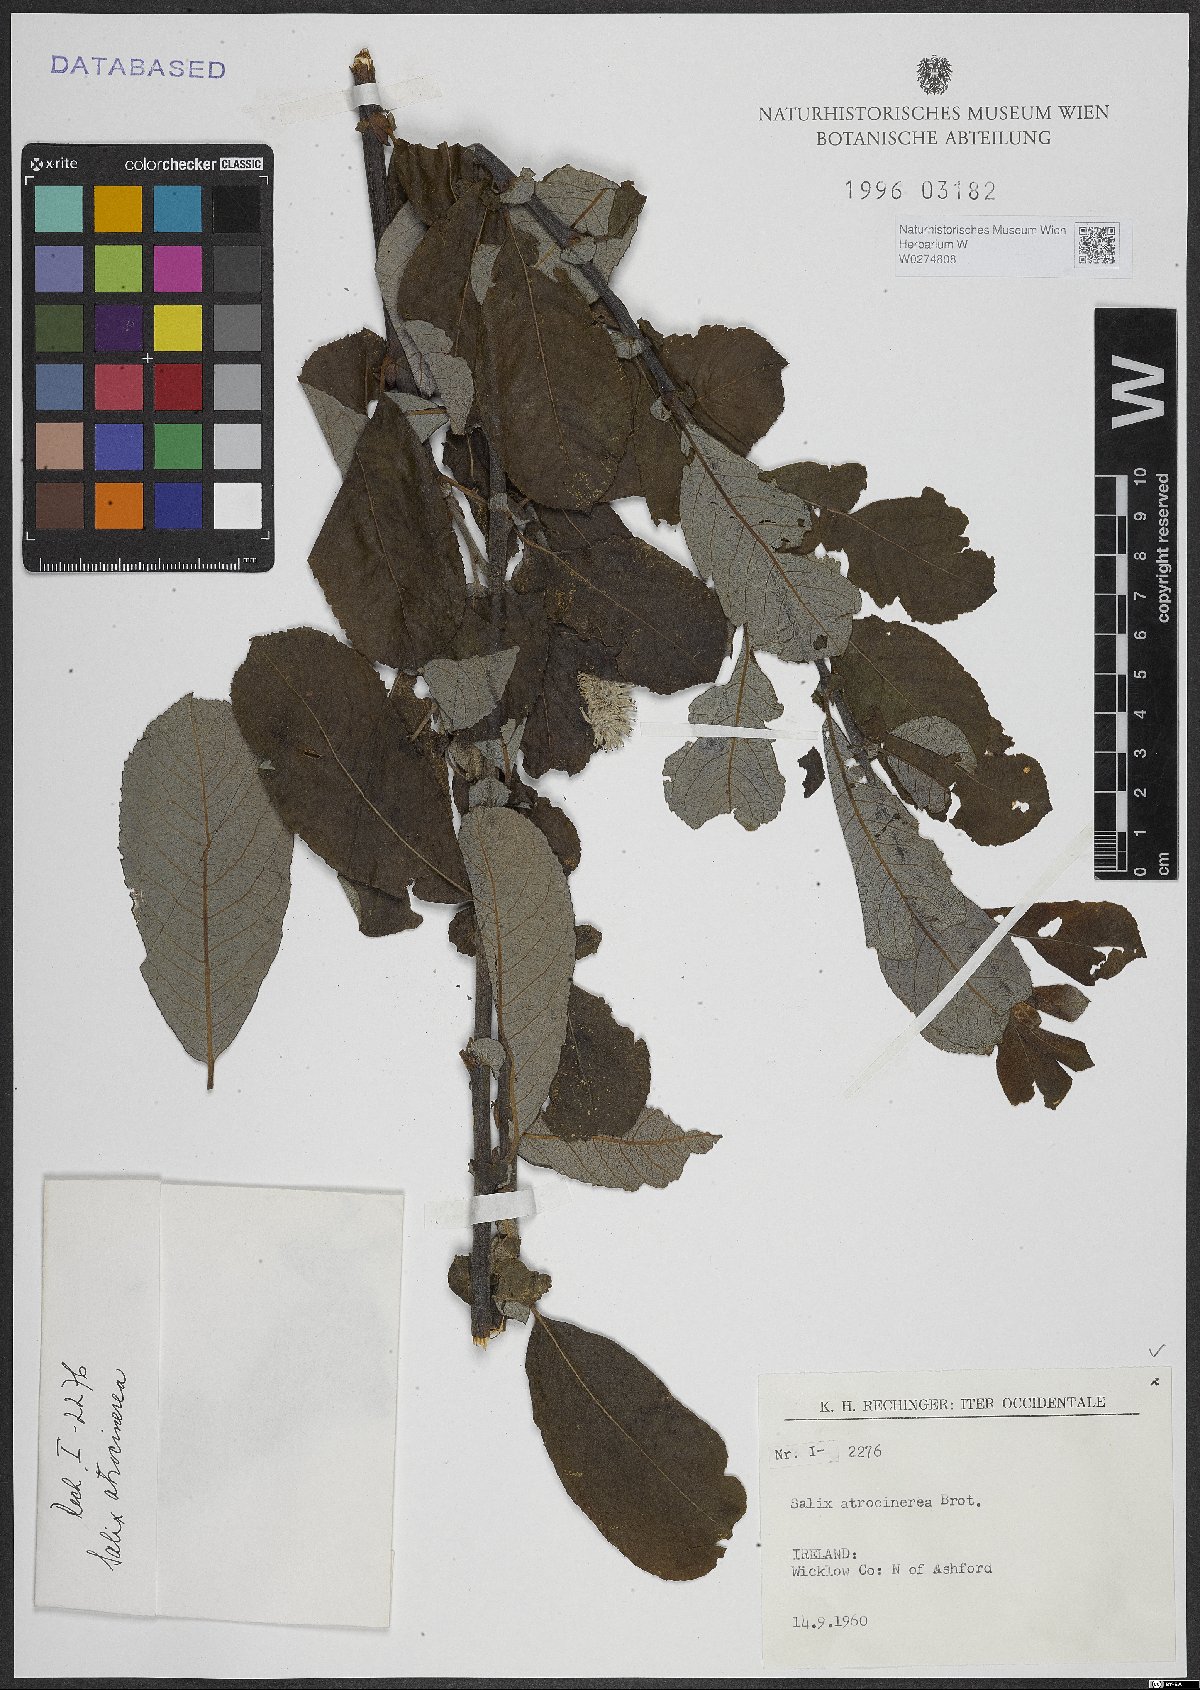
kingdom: Plantae
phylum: Tracheophyta
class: Magnoliopsida
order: Malpighiales
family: Salicaceae
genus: Salix
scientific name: Salix atrocinerea
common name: Rusty willow
